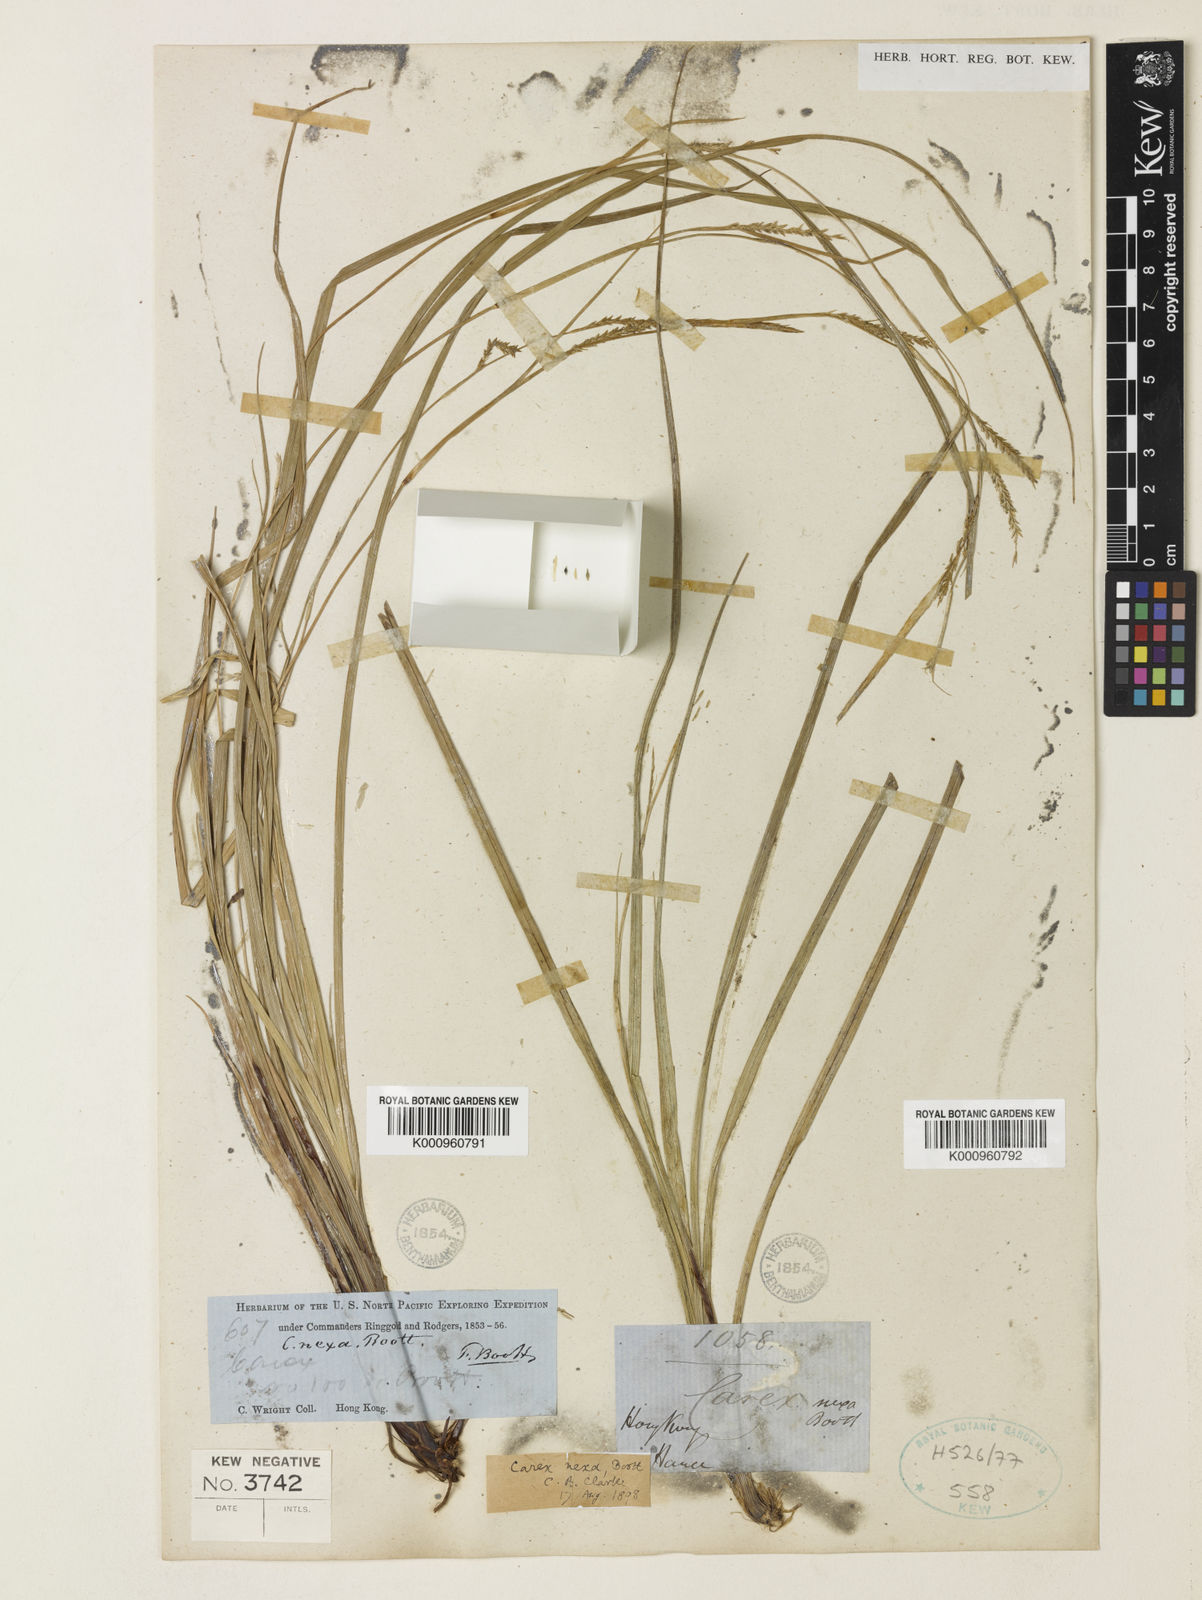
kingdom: Plantae
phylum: Tracheophyta
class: Liliopsida
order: Poales
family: Cyperaceae
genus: Carex
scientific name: Carex
